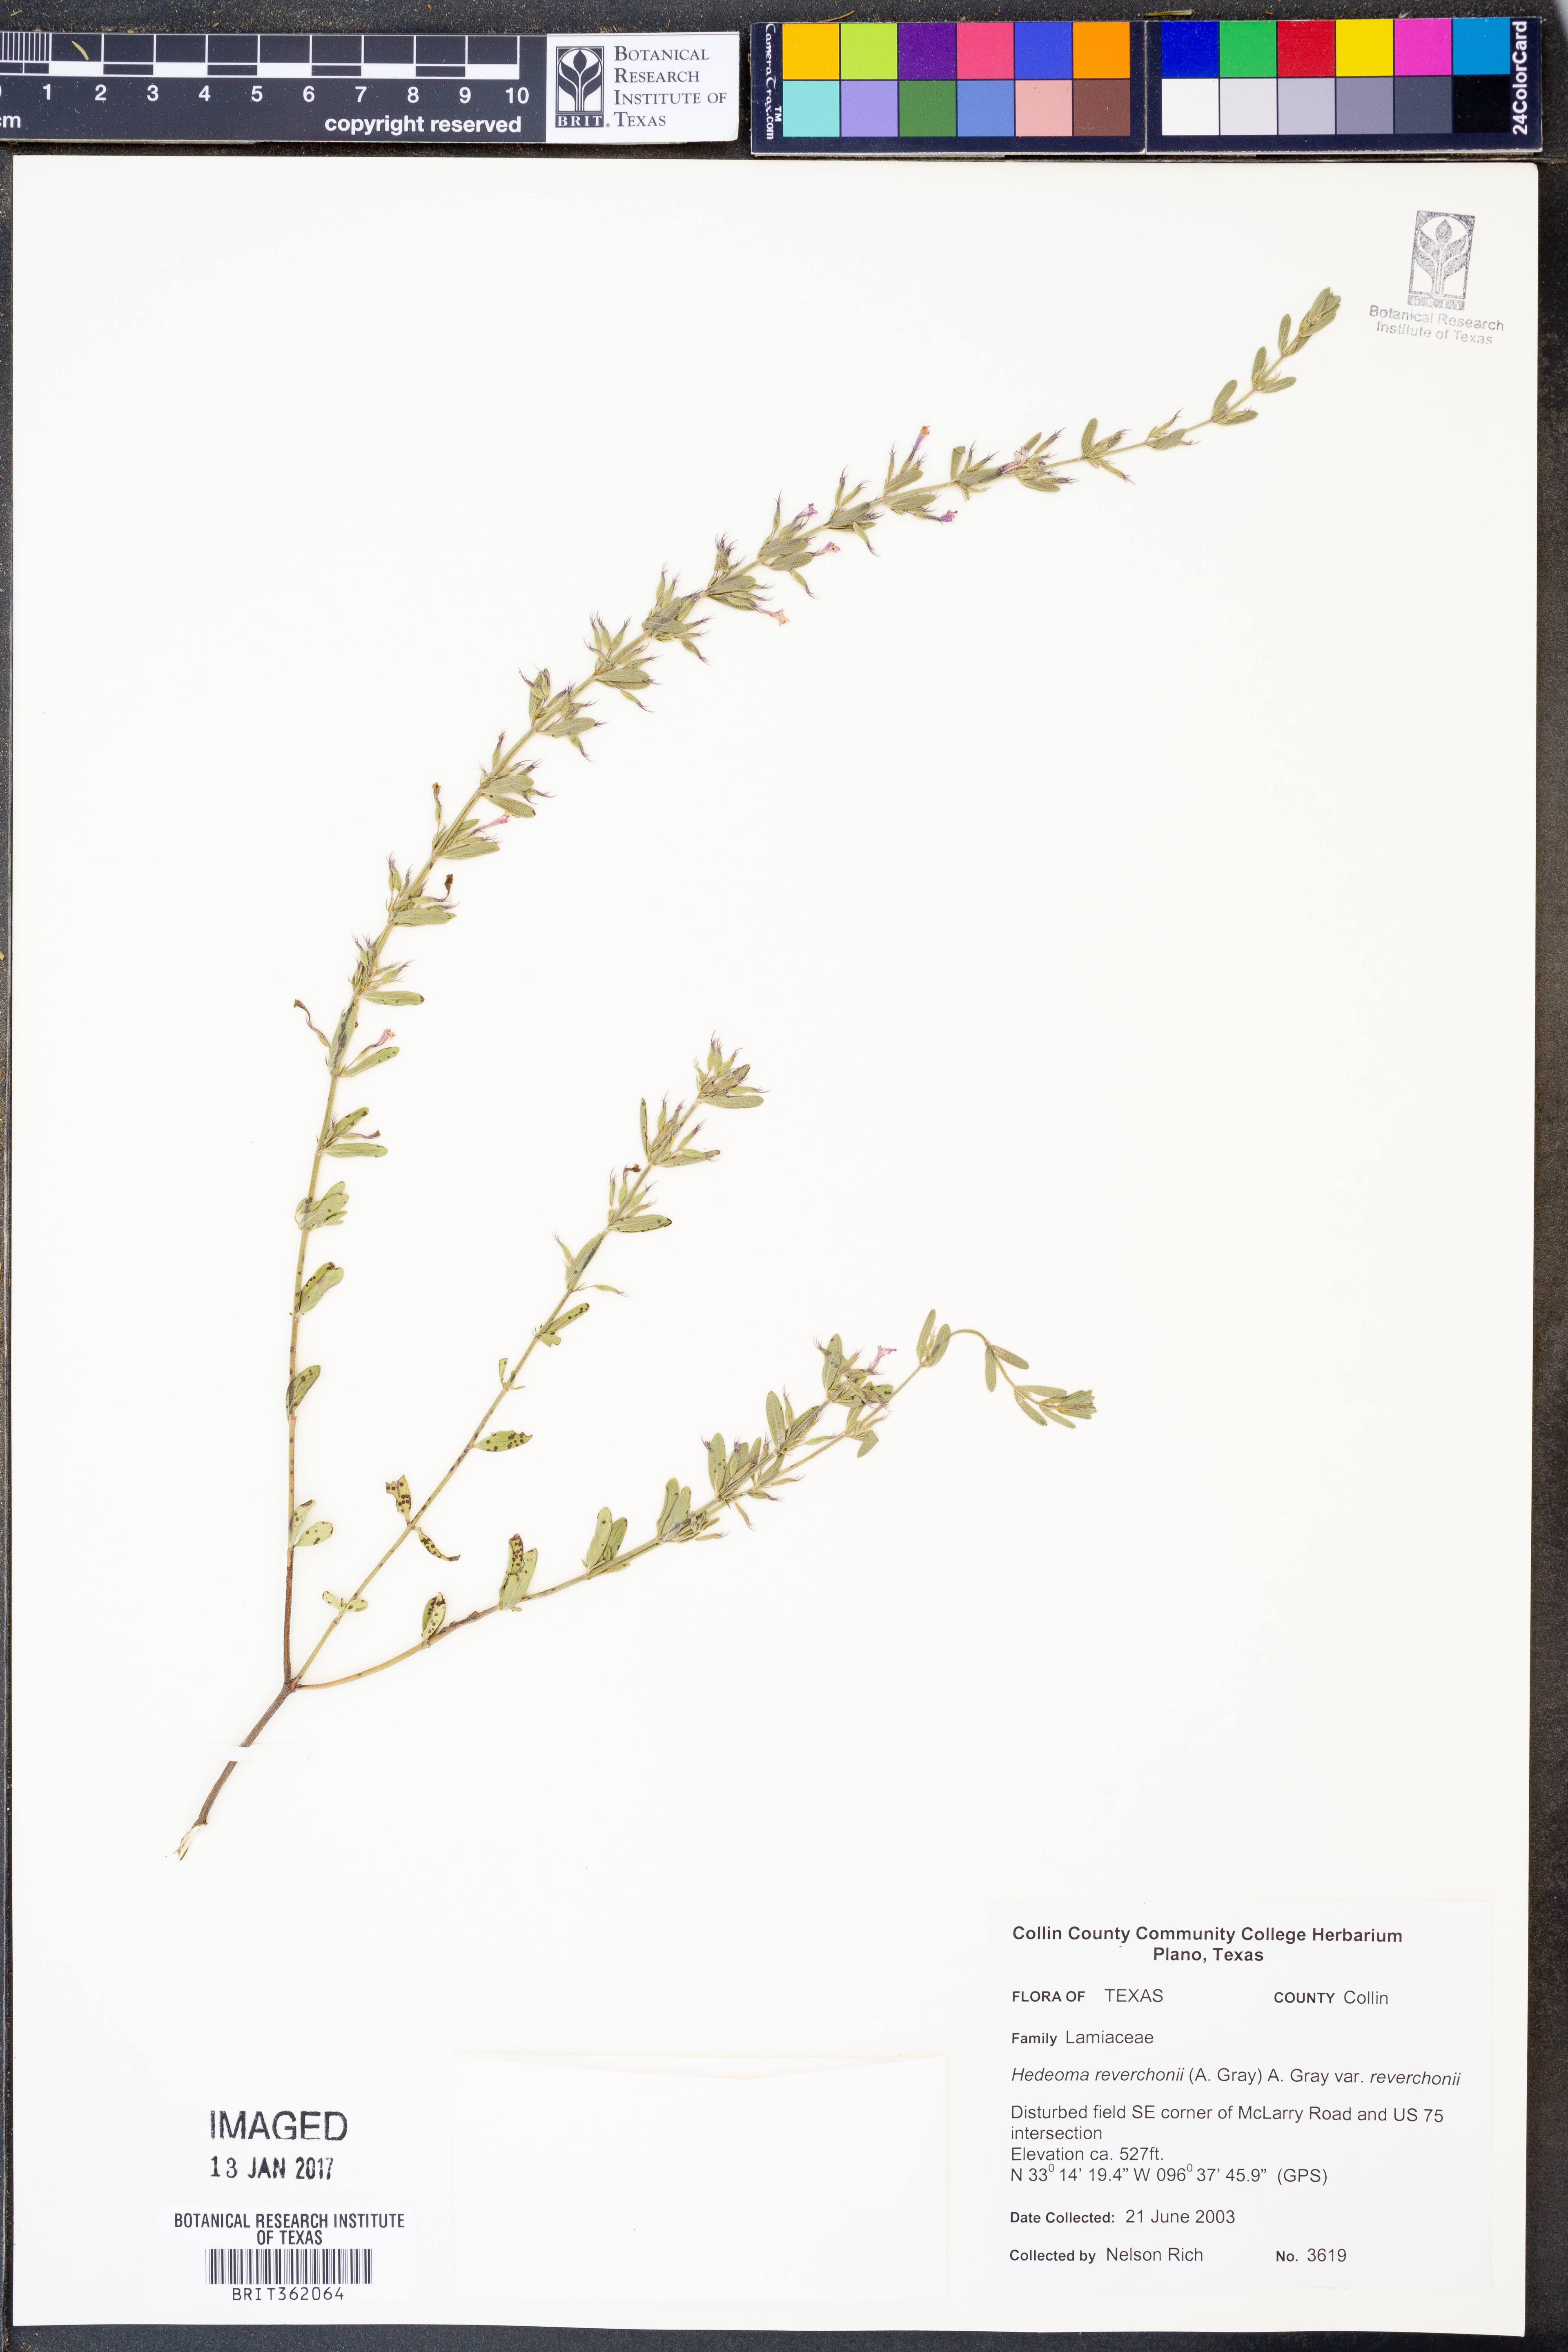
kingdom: Plantae
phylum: Tracheophyta
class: Magnoliopsida
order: Lamiales
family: Lamiaceae
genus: Hedeoma
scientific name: Hedeoma reverchonii
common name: Reverchon's false penny-royal
